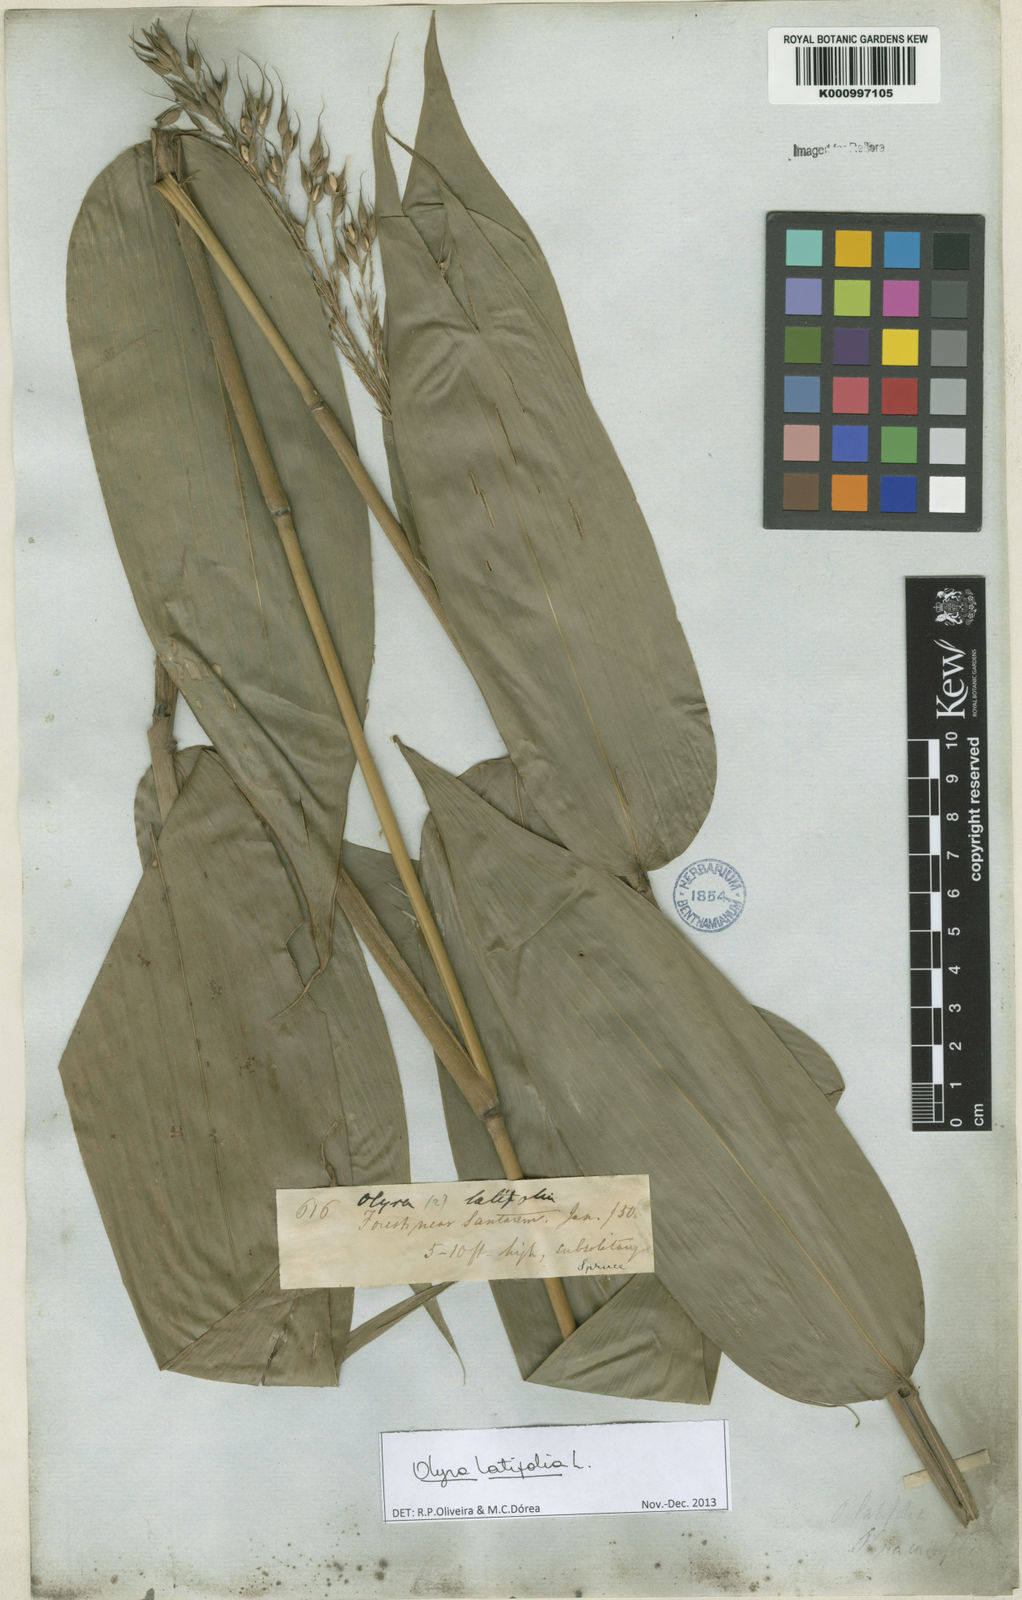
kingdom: Plantae
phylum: Tracheophyta
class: Liliopsida
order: Poales
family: Poaceae
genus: Olyra
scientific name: Olyra latifolia
